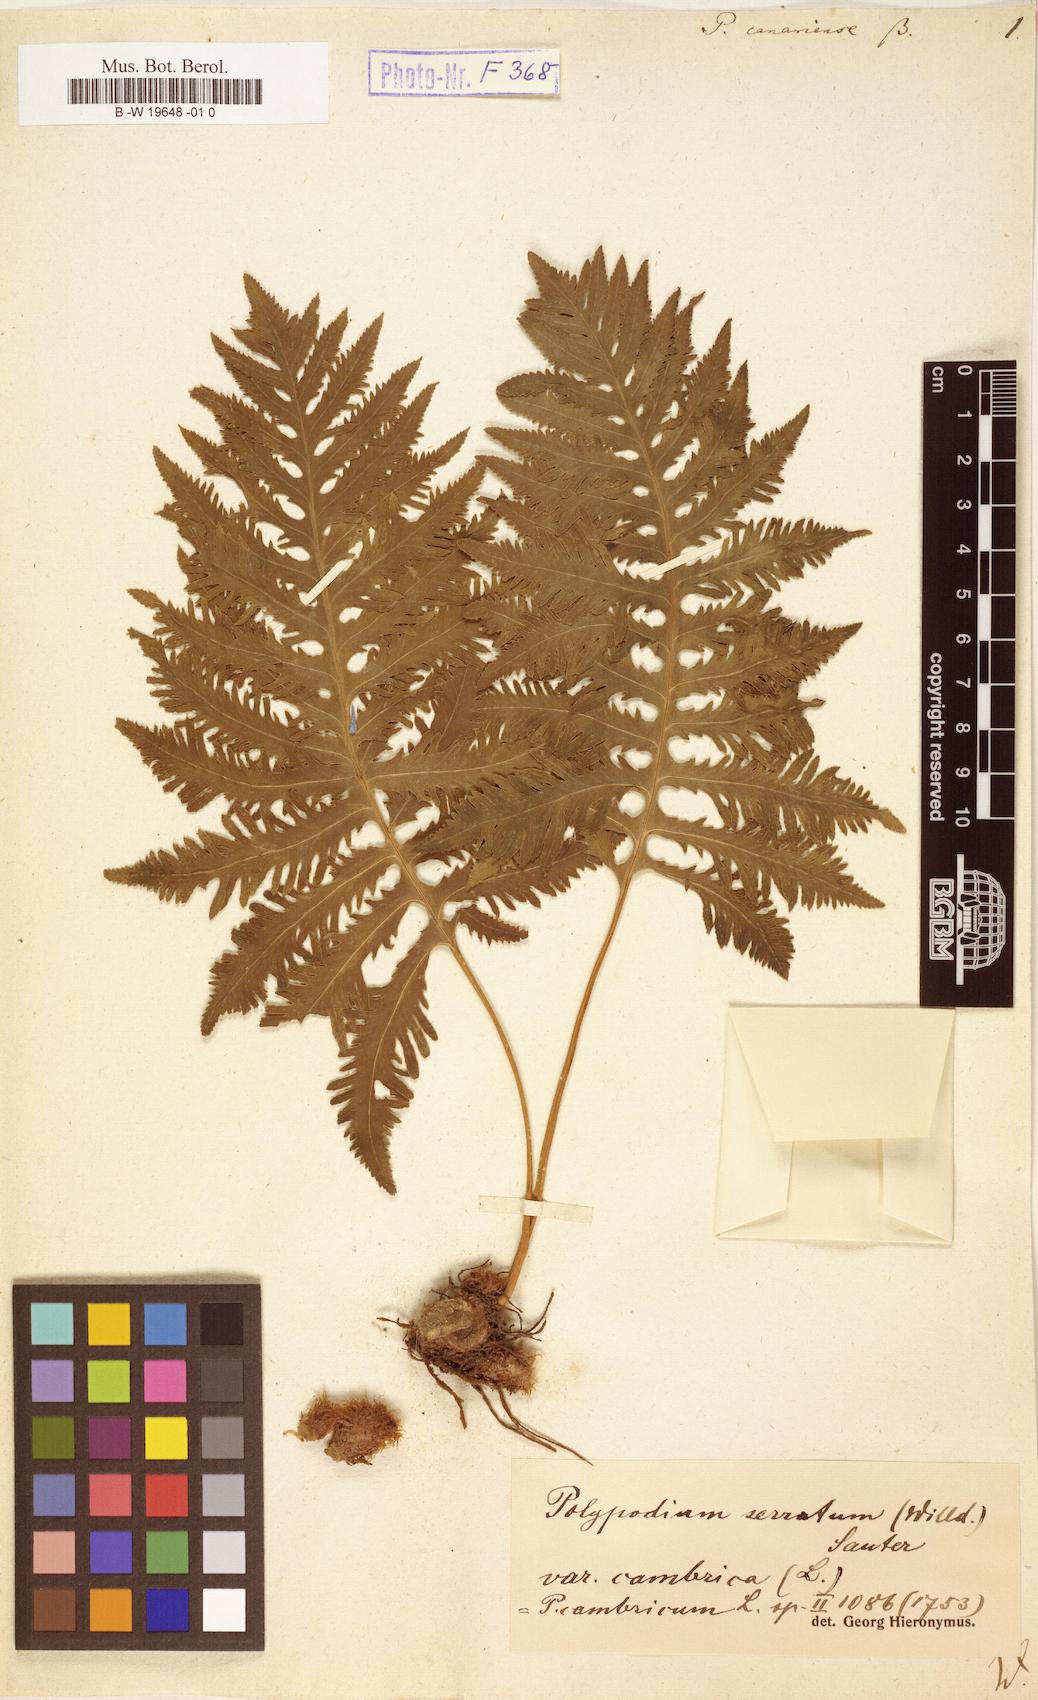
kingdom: Plantae
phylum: Tracheophyta
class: Polypodiopsida
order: Polypodiales
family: Polypodiaceae
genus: Polypodium
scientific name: Polypodium cambricum
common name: Southern polypody
